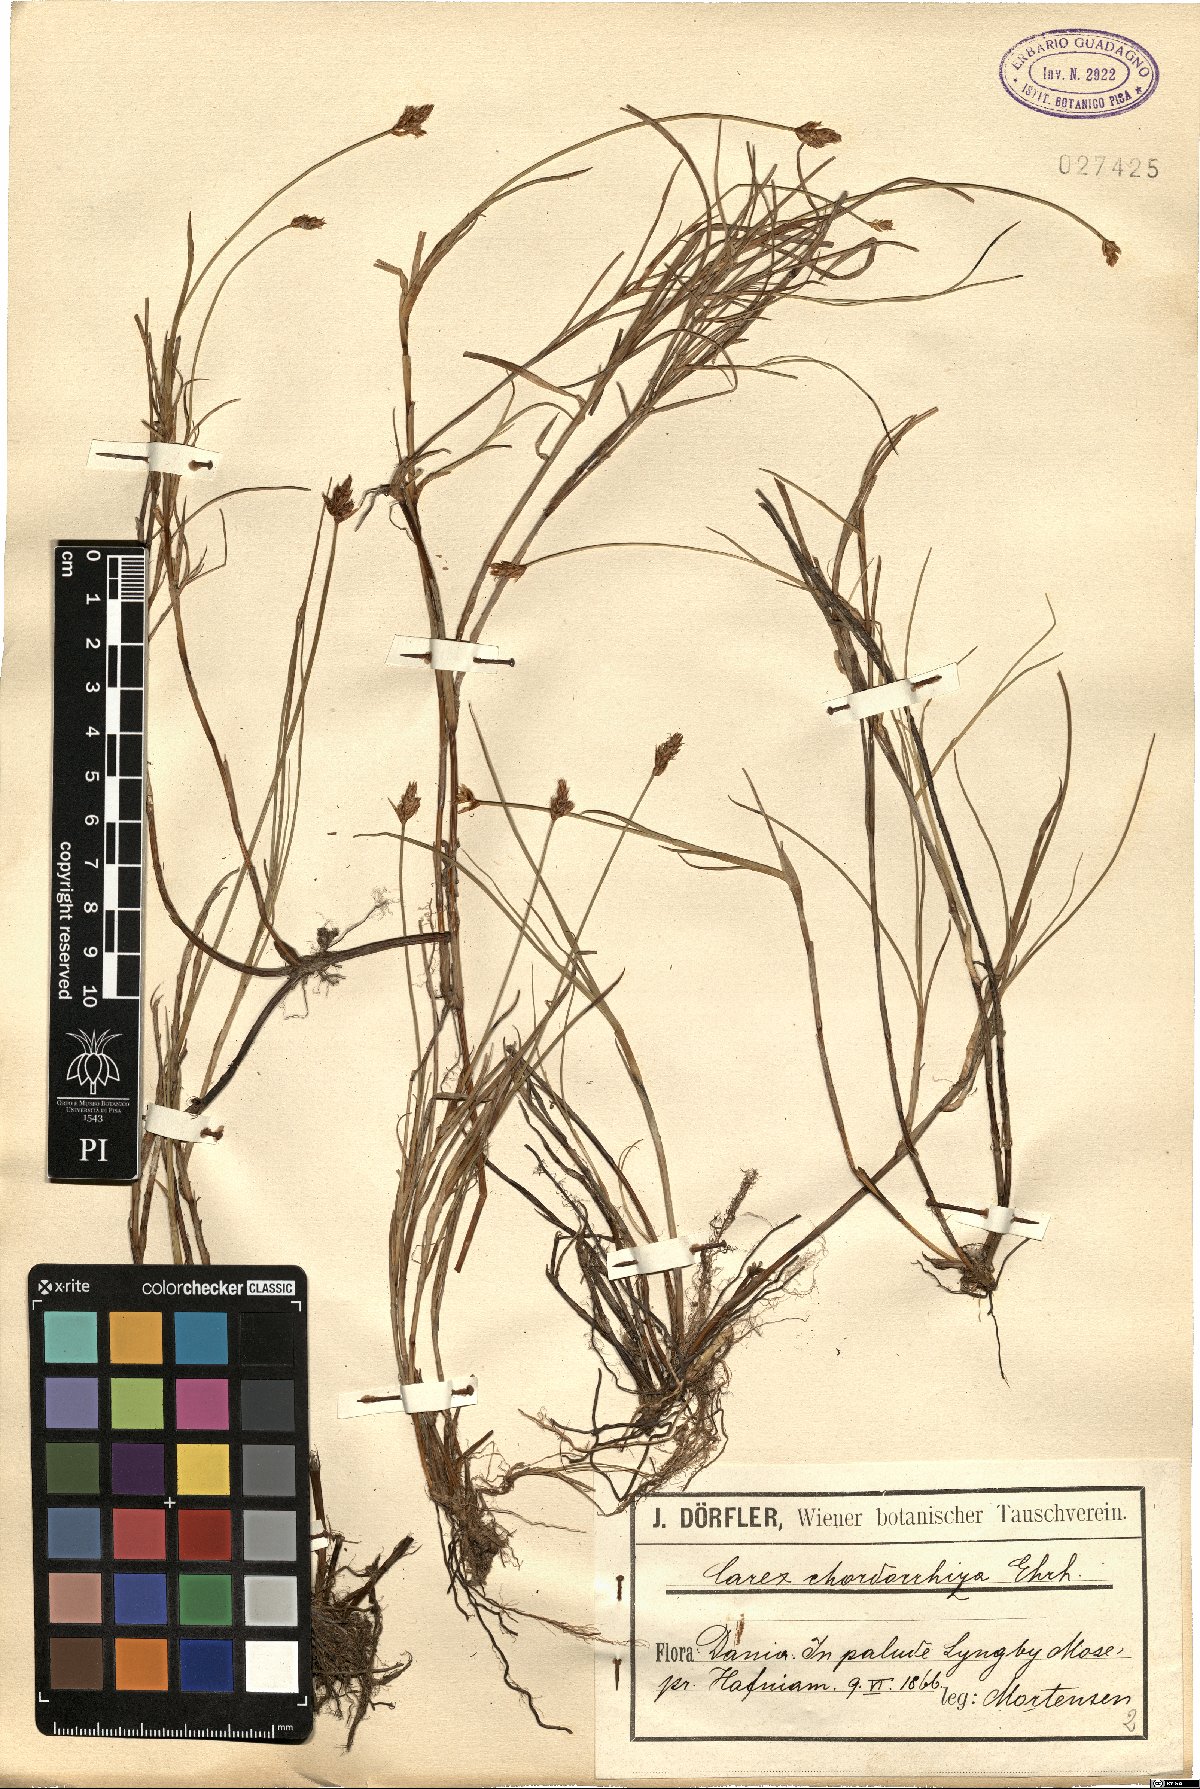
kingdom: Plantae
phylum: Tracheophyta
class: Liliopsida
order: Poales
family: Cyperaceae
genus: Carex
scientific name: Carex chordorrhiza
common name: String sedge
